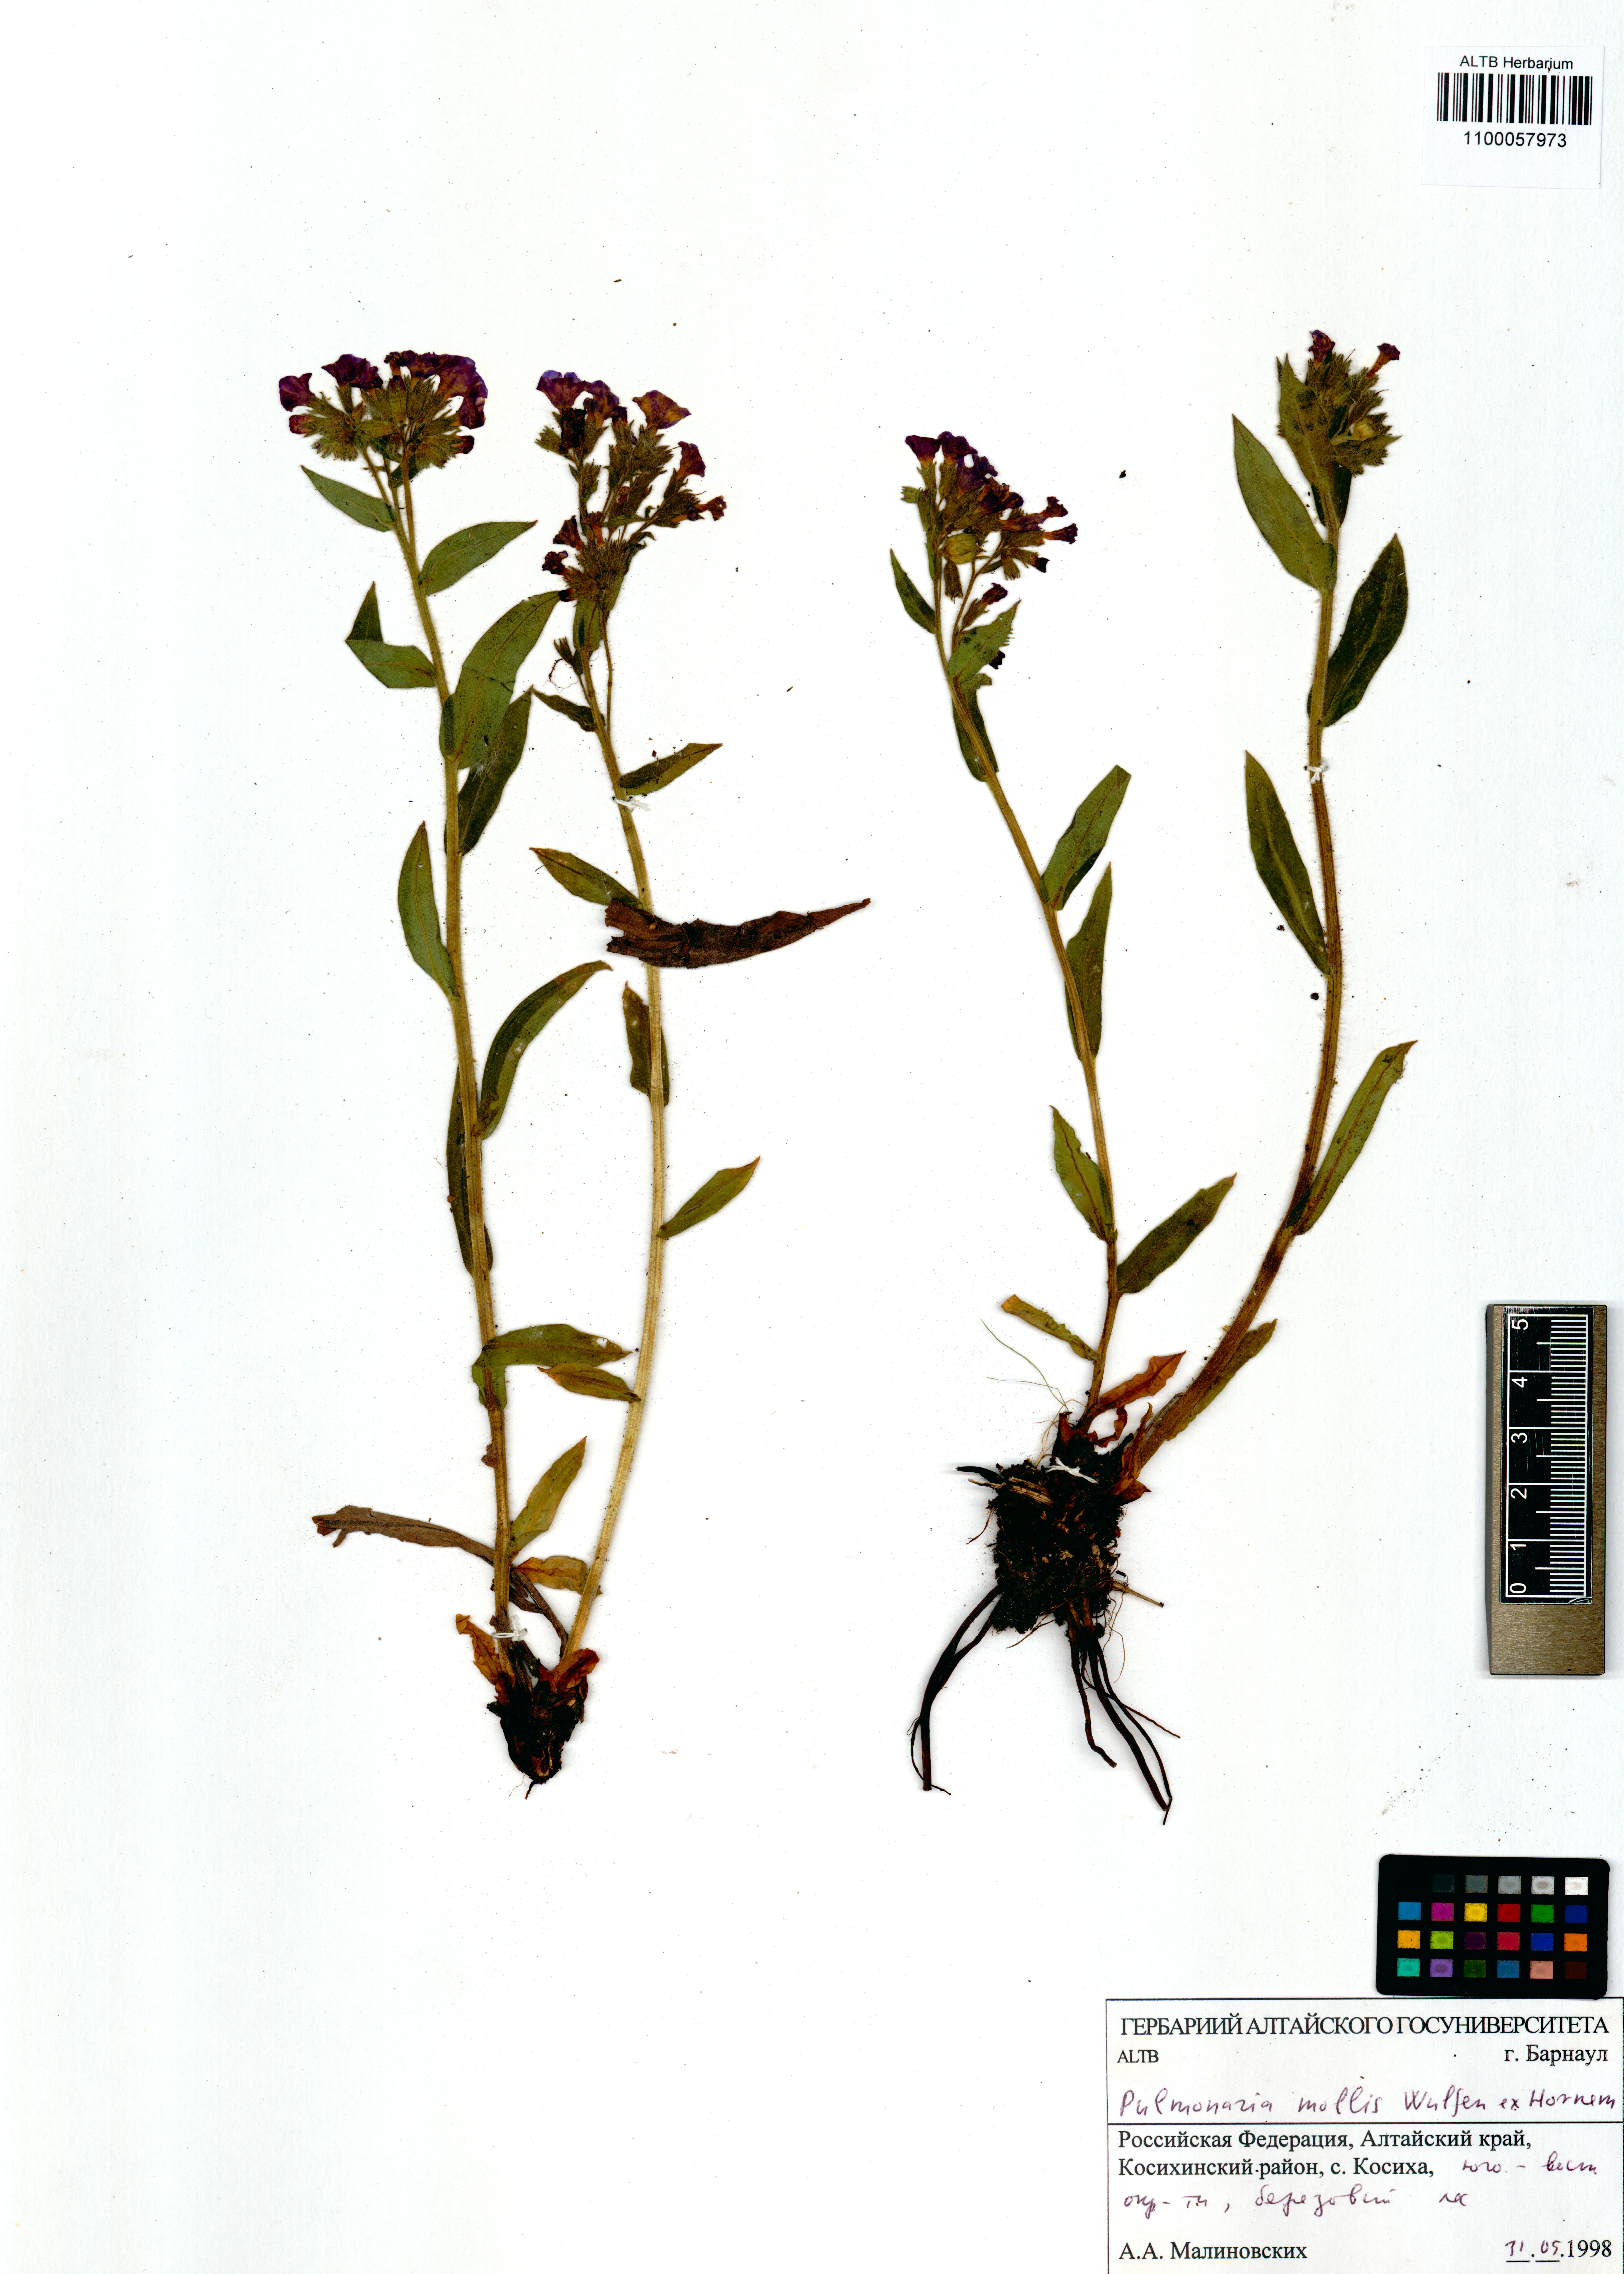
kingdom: Plantae
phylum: Tracheophyta
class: Magnoliopsida
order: Boraginales
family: Boraginaceae
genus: Pulmonaria
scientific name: Pulmonaria mollis
